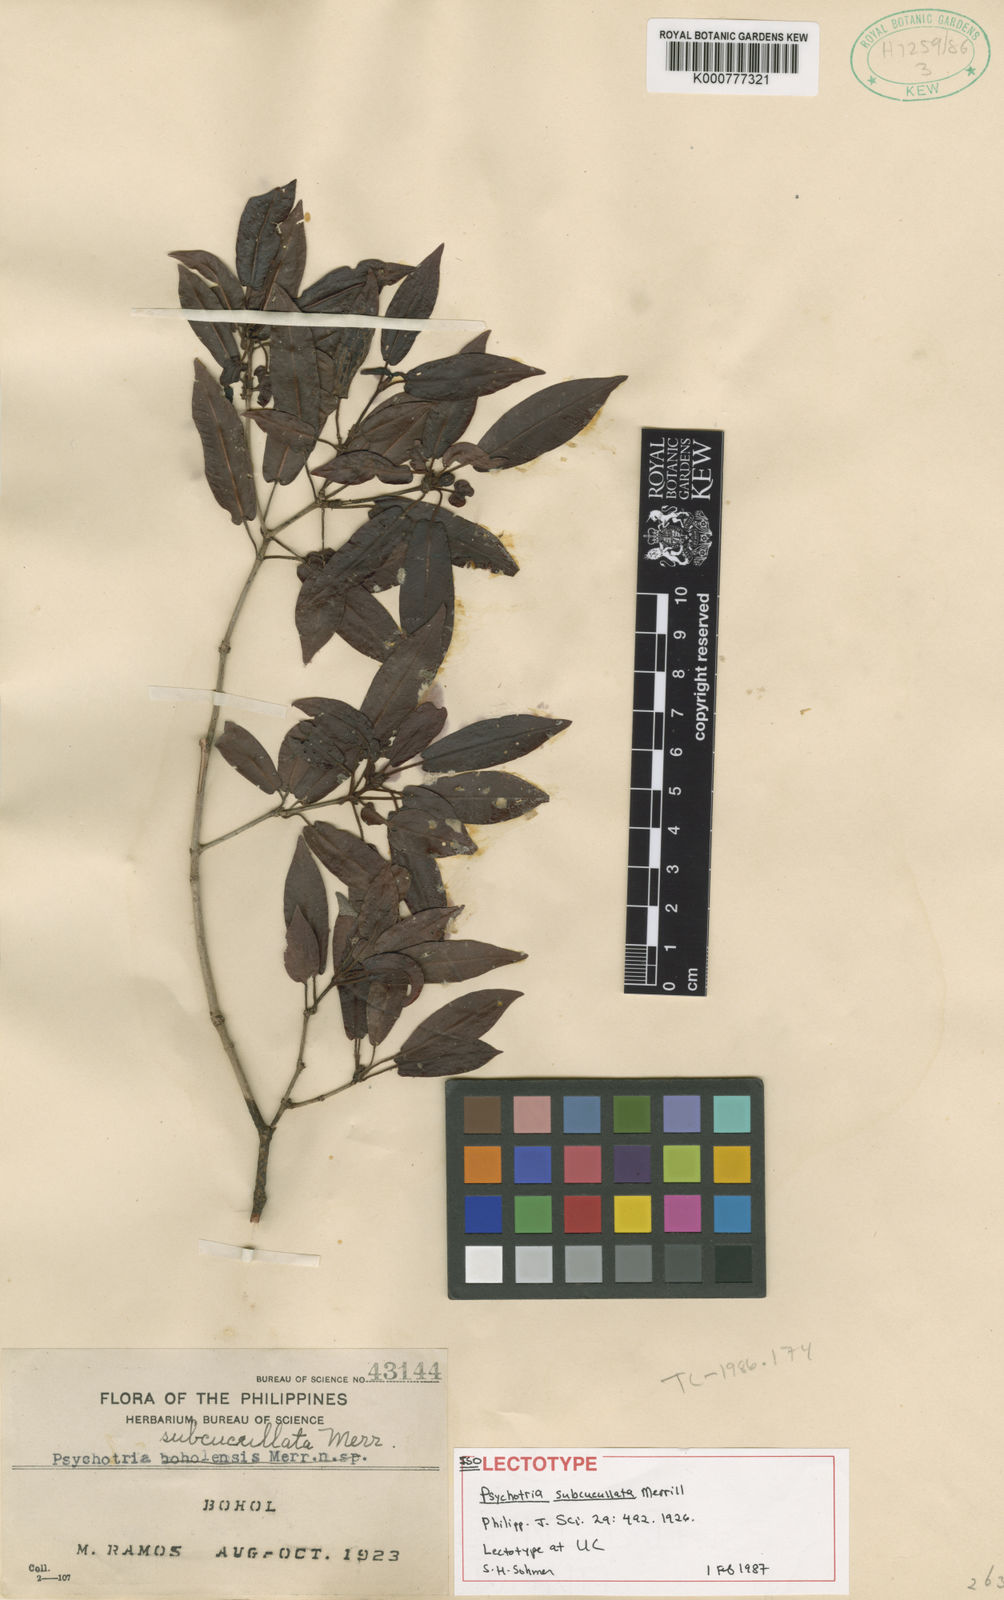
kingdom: Plantae
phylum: Tracheophyta
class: Magnoliopsida
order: Gentianales
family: Rubiaceae
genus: Psychotria
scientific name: Psychotria subcucullata
